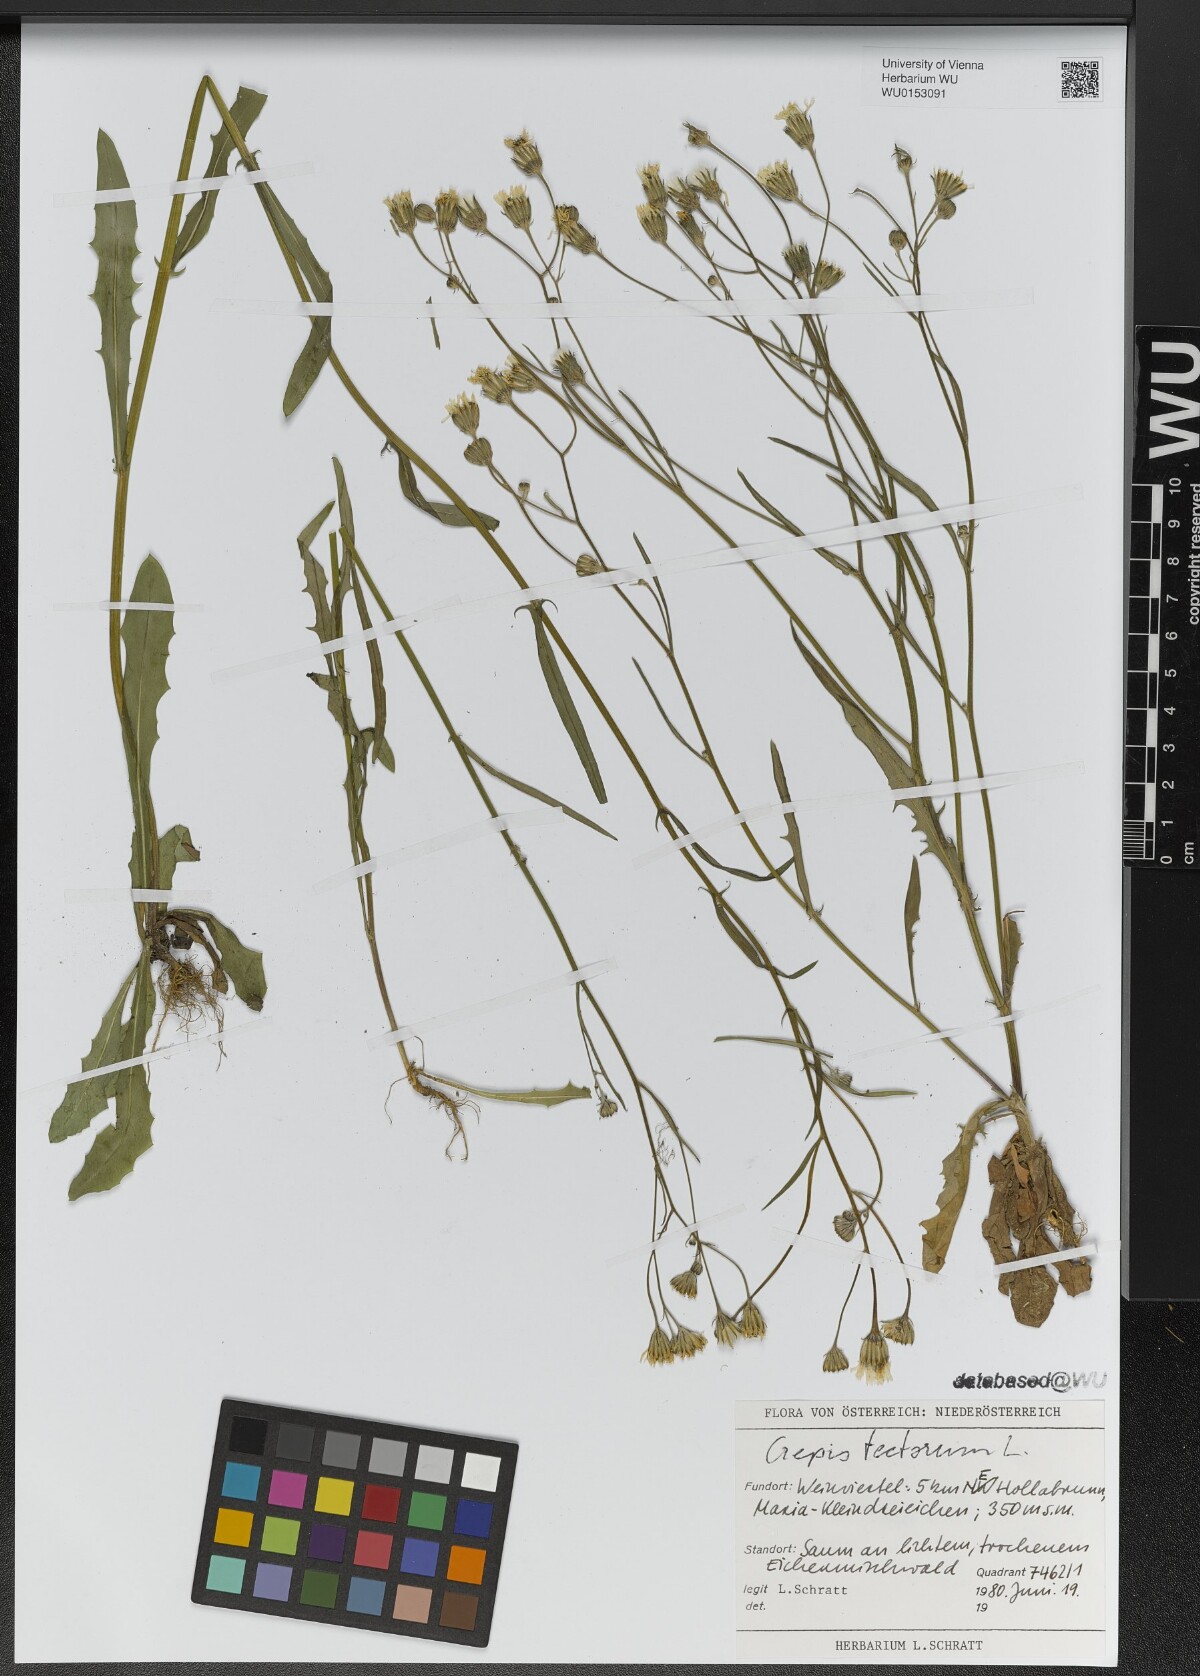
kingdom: Plantae
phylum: Tracheophyta
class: Magnoliopsida
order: Asterales
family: Asteraceae
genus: Crepis
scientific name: Crepis tectorum
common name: Narrow-leaved hawk's-beard
